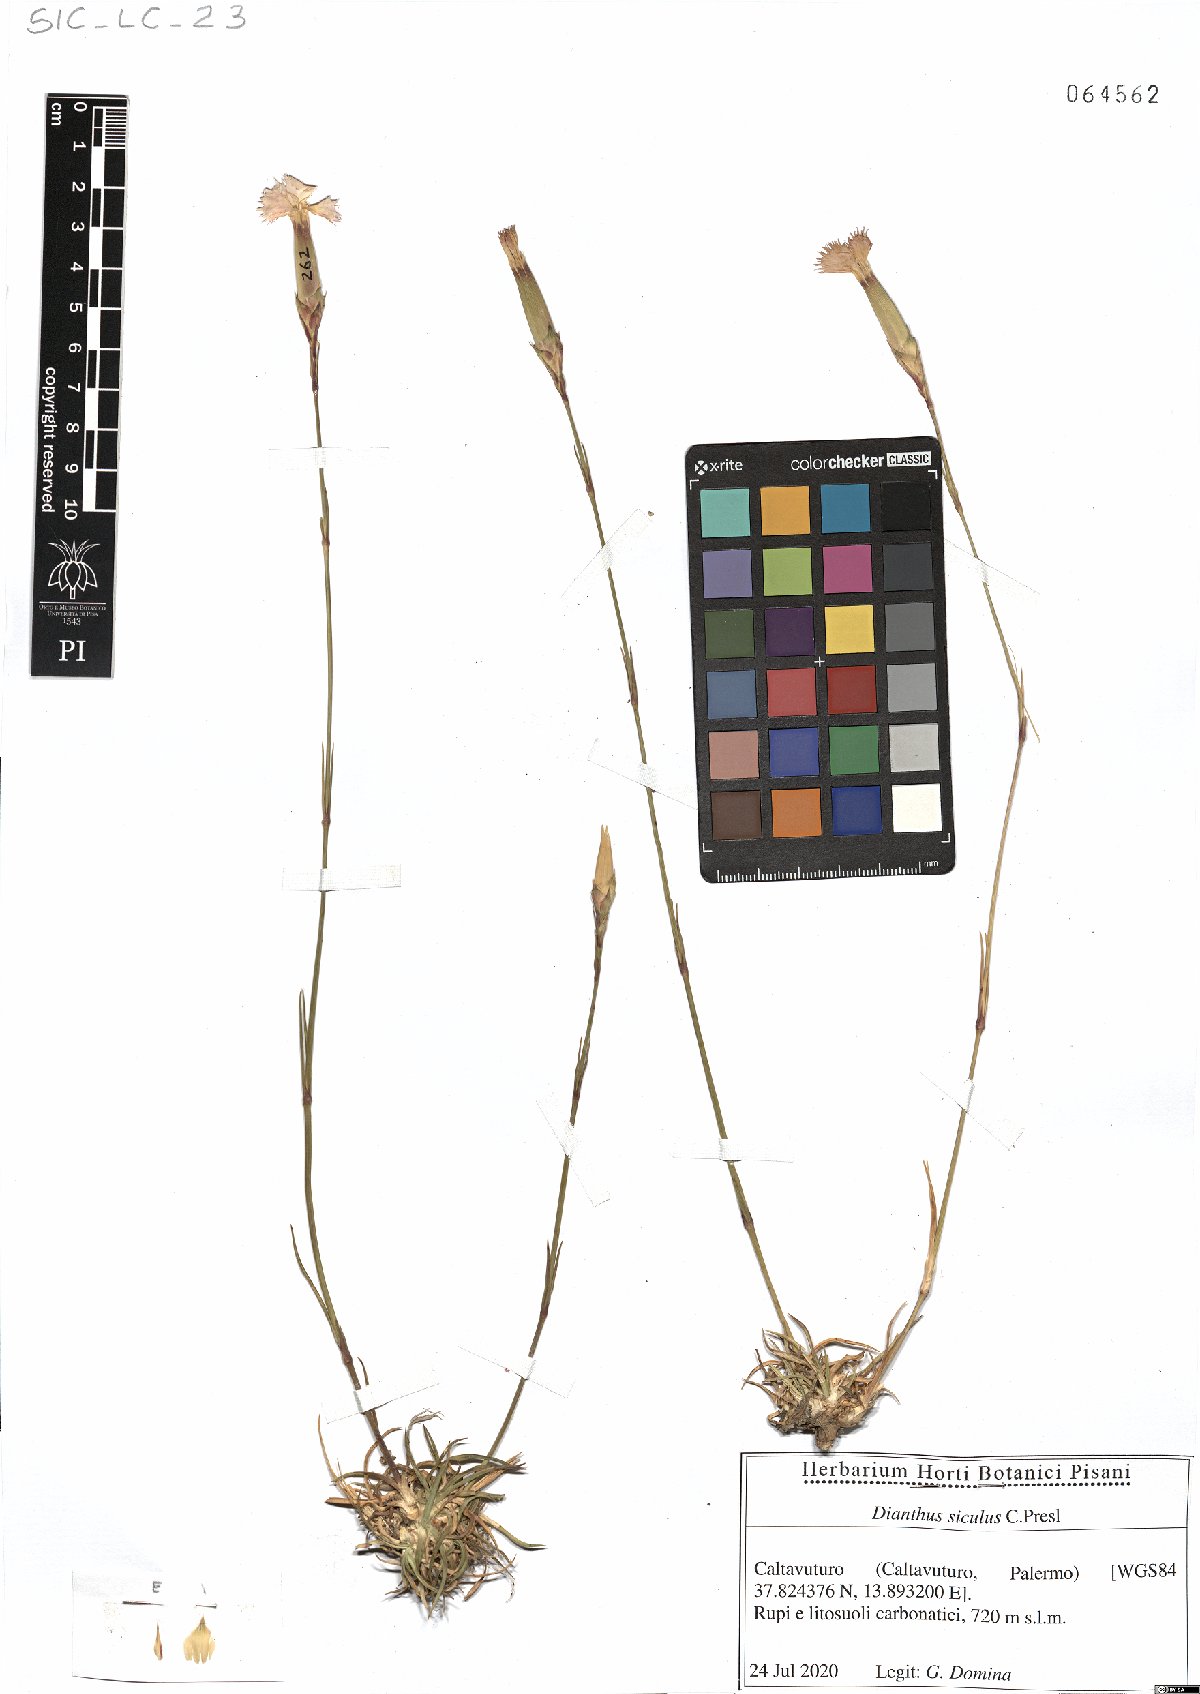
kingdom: Plantae
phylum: Tracheophyta
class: Magnoliopsida
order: Caryophyllales
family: Caryophyllaceae
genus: Dianthus
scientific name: Dianthus siculus
